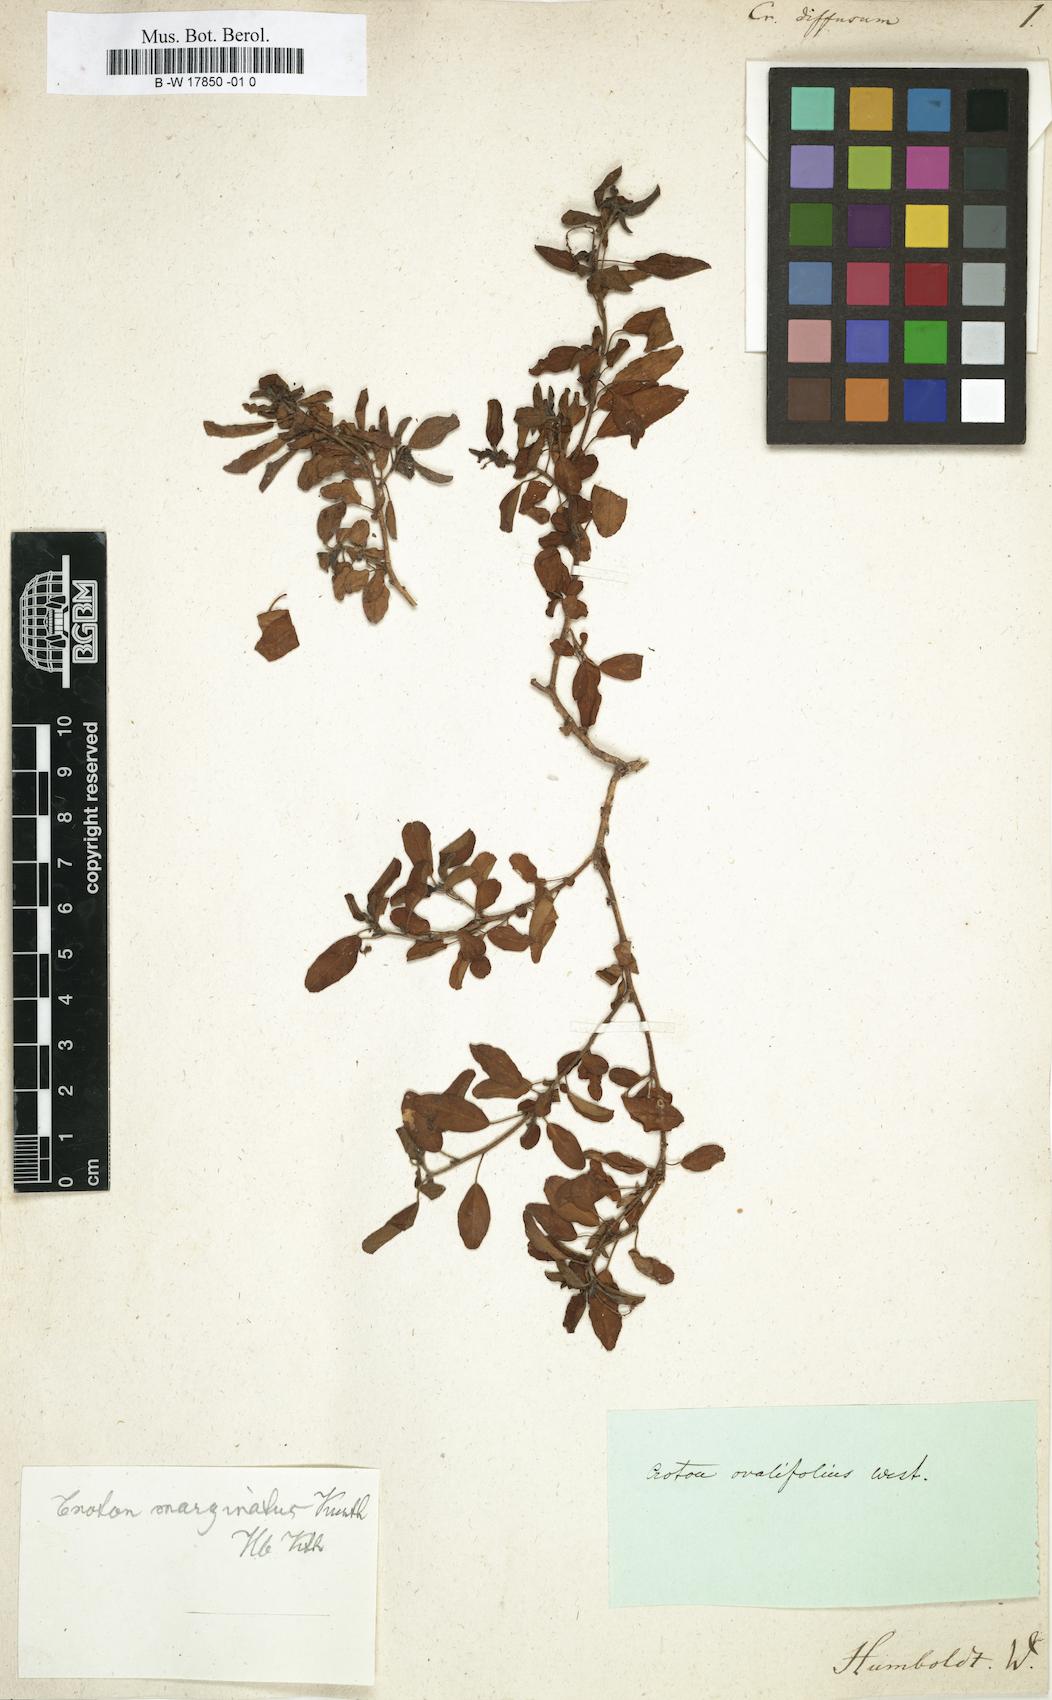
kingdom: Plantae
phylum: Tracheophyta
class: Magnoliopsida
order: Malpighiales
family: Euphorbiaceae
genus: Croton
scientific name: Croton ovalifolius
